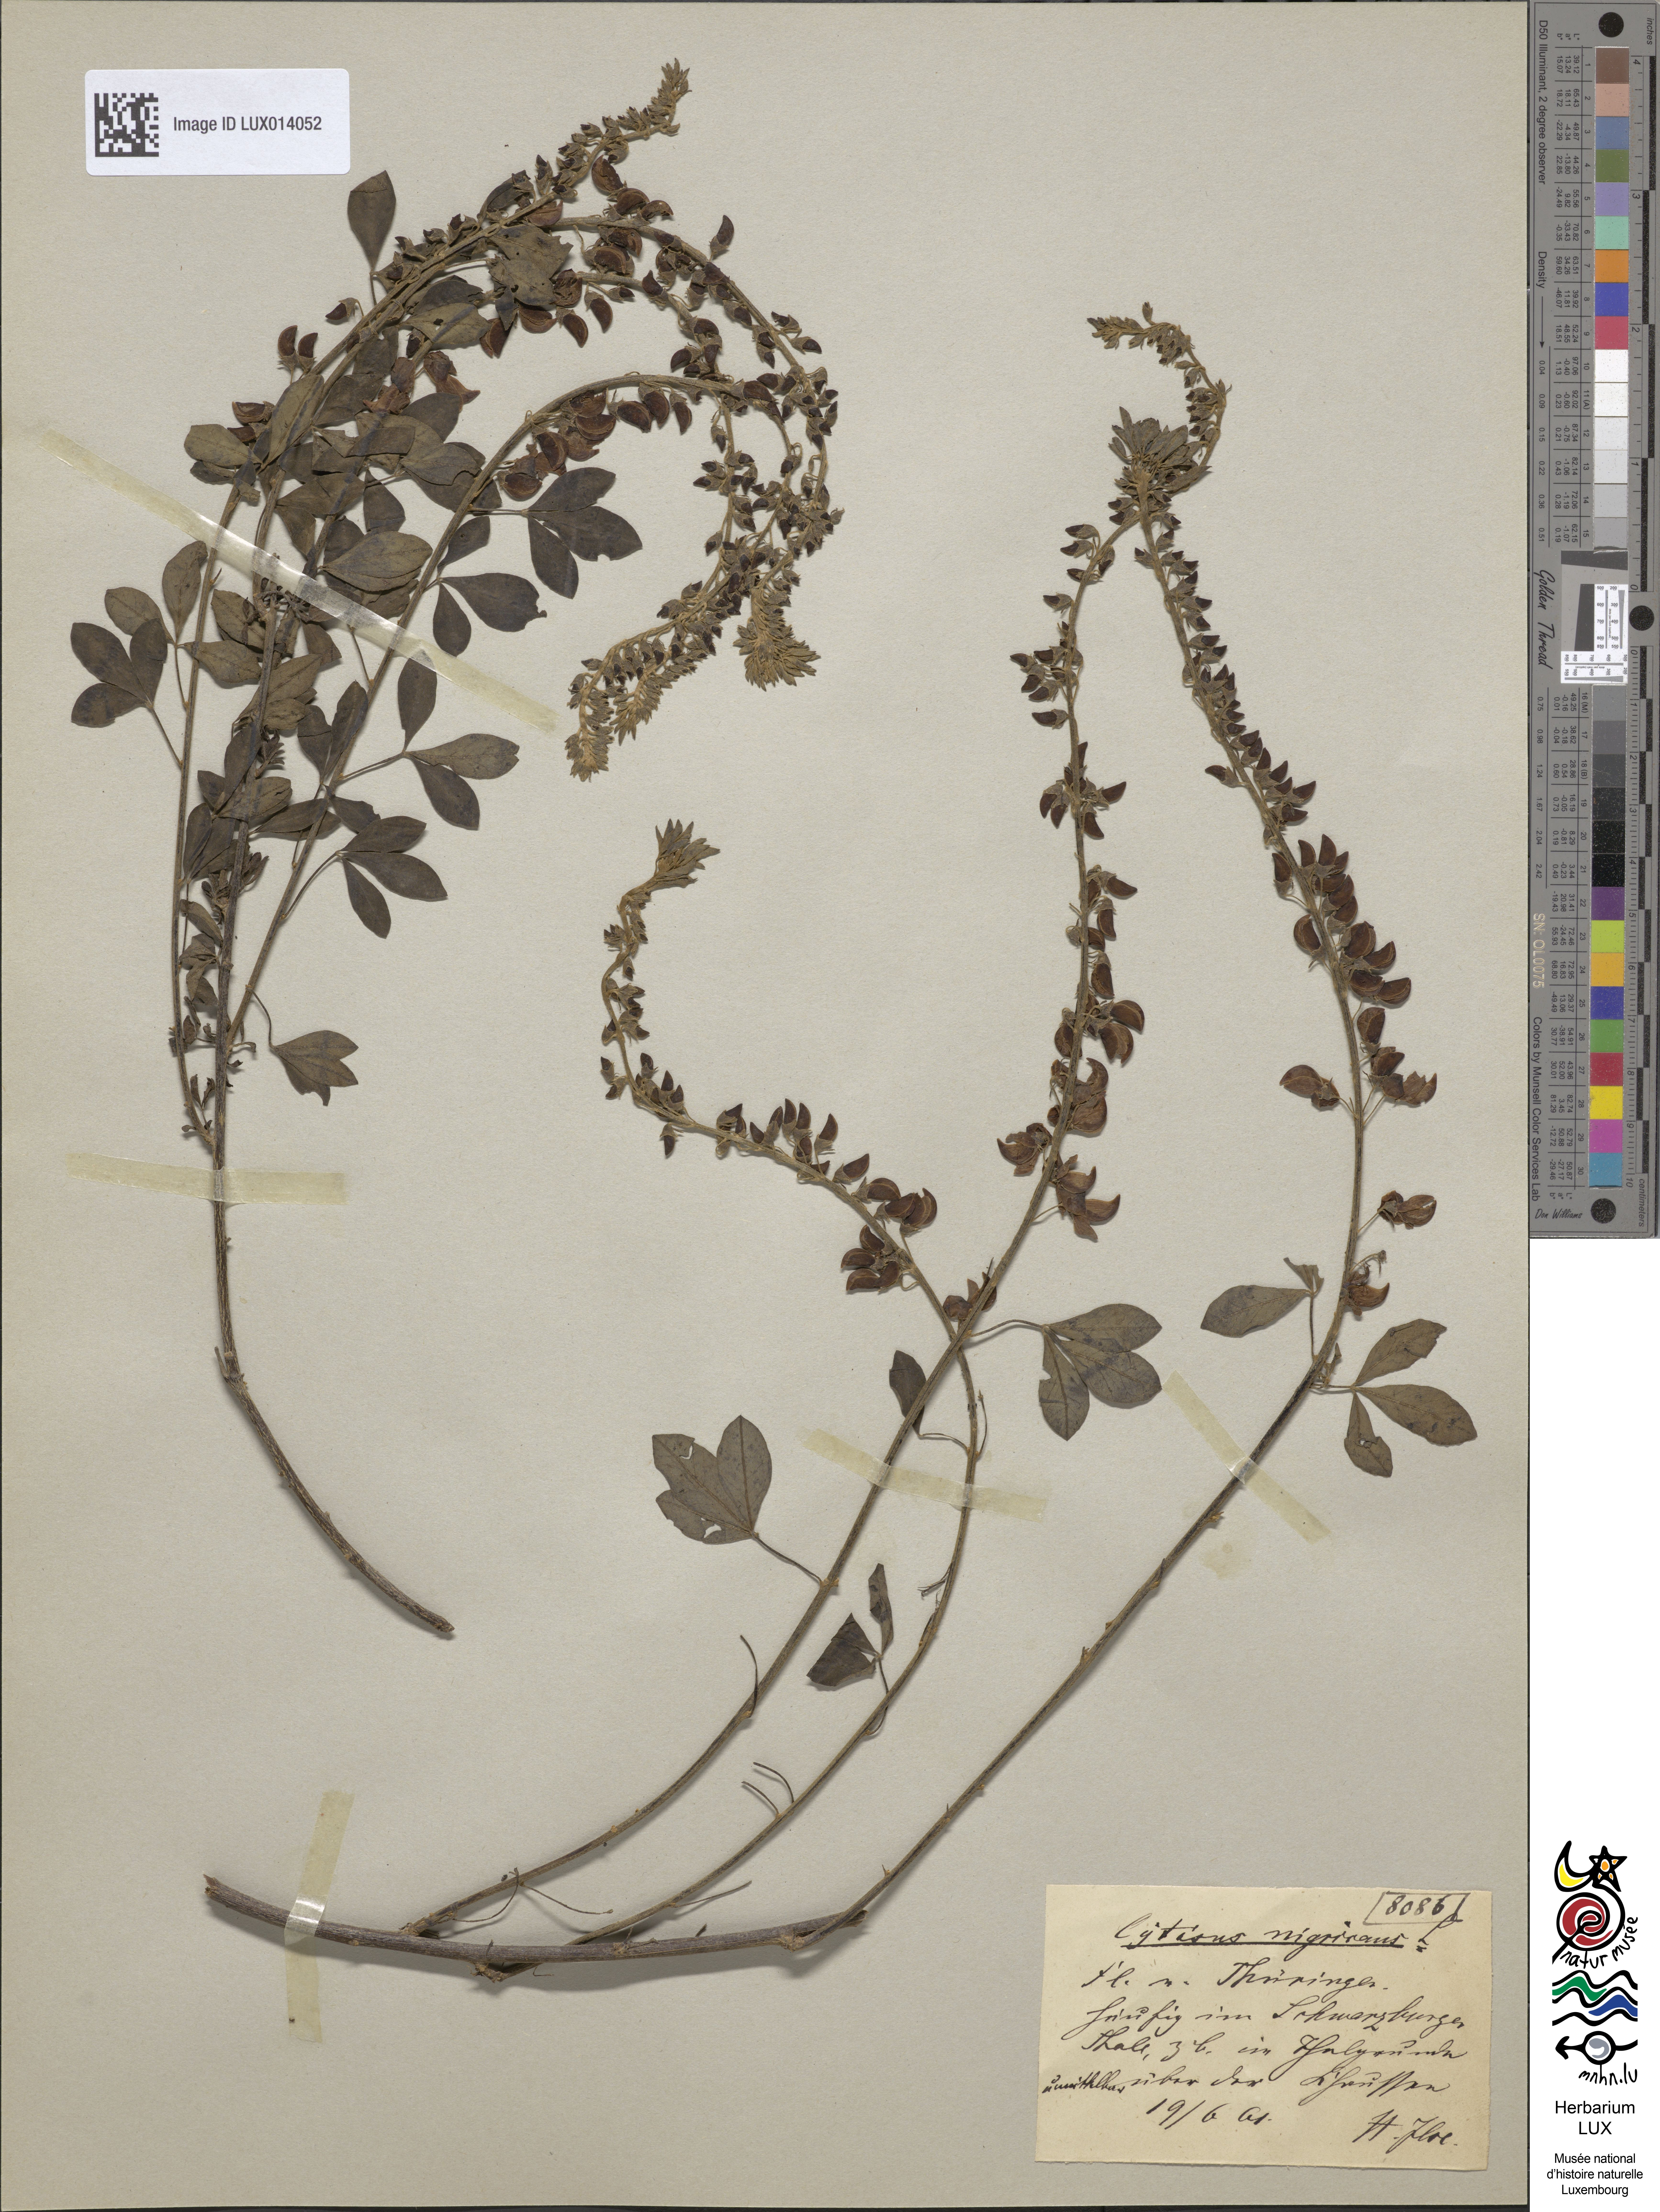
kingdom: Plantae
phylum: Tracheophyta
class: Magnoliopsida
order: Fabales
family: Fabaceae
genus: Cytisus
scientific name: Cytisus nigricans
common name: Black broom
